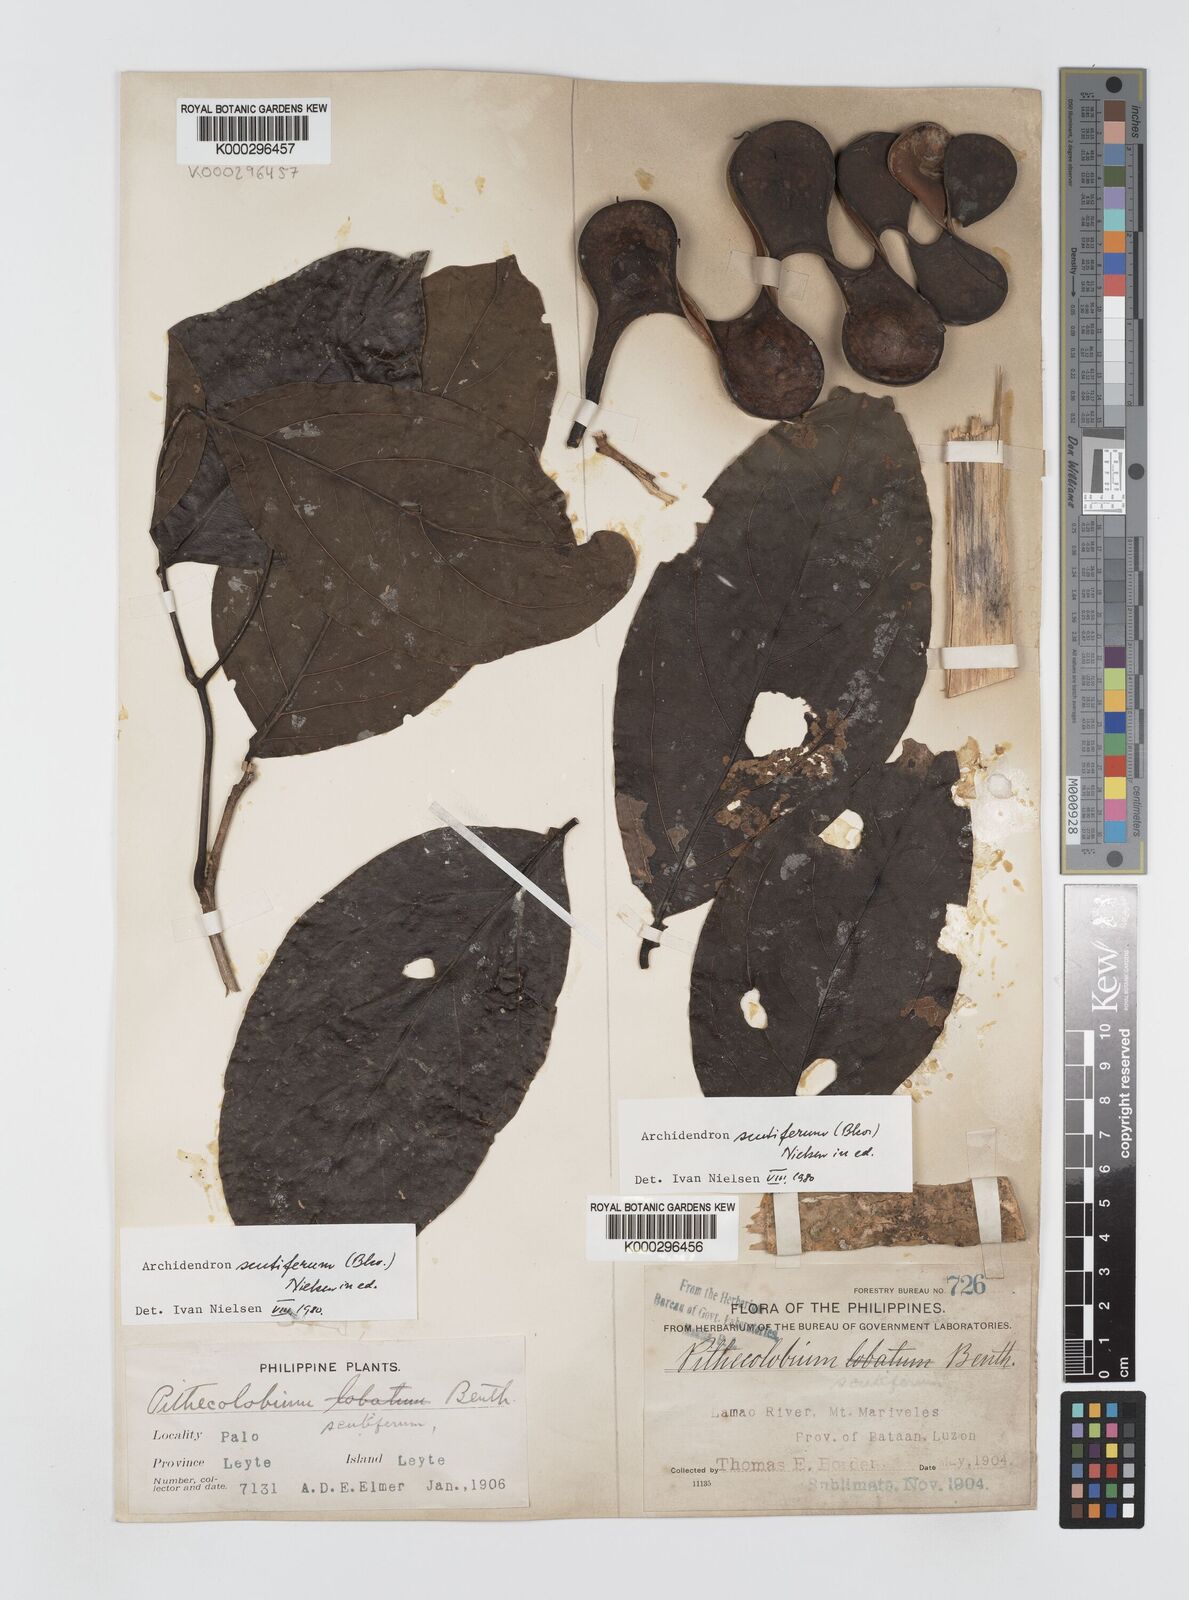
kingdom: Plantae
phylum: Tracheophyta
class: Magnoliopsida
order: Fabales
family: Fabaceae
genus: Archidendron
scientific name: Archidendron scutiferum
